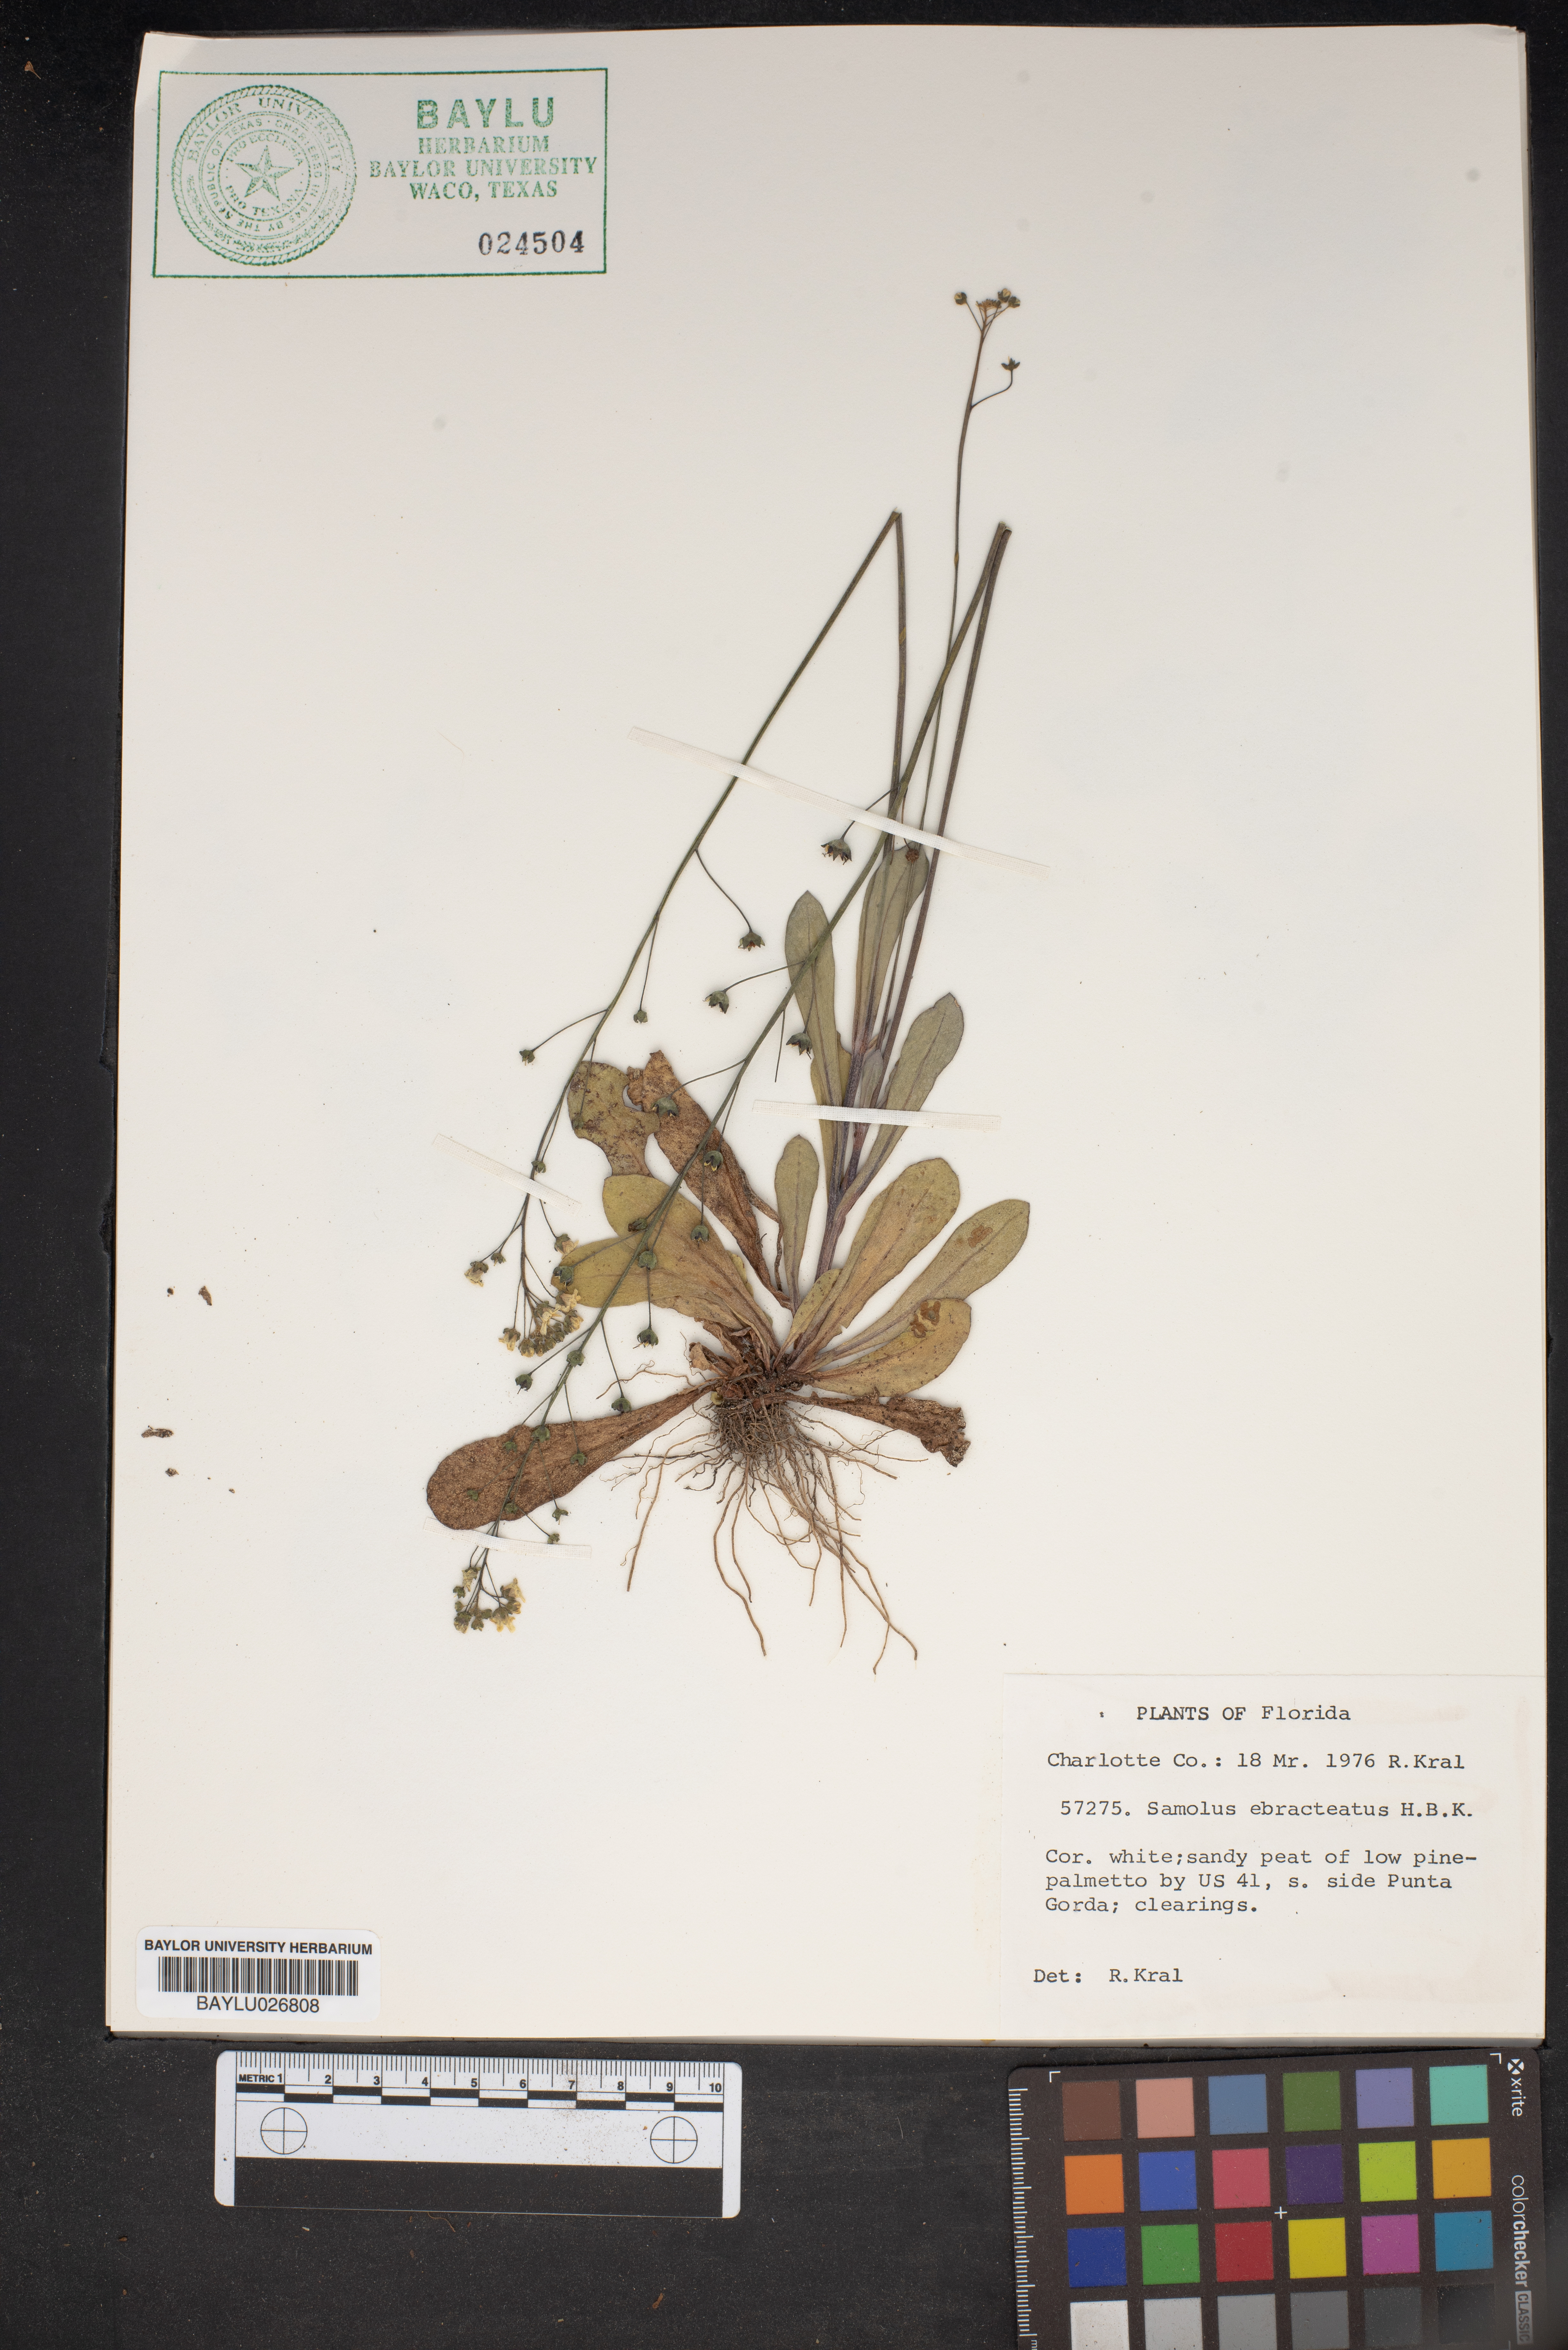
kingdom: Plantae
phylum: Tracheophyta
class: Magnoliopsida
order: Ericales
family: Primulaceae
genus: Samolus
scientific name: Samolus ebracteatus
